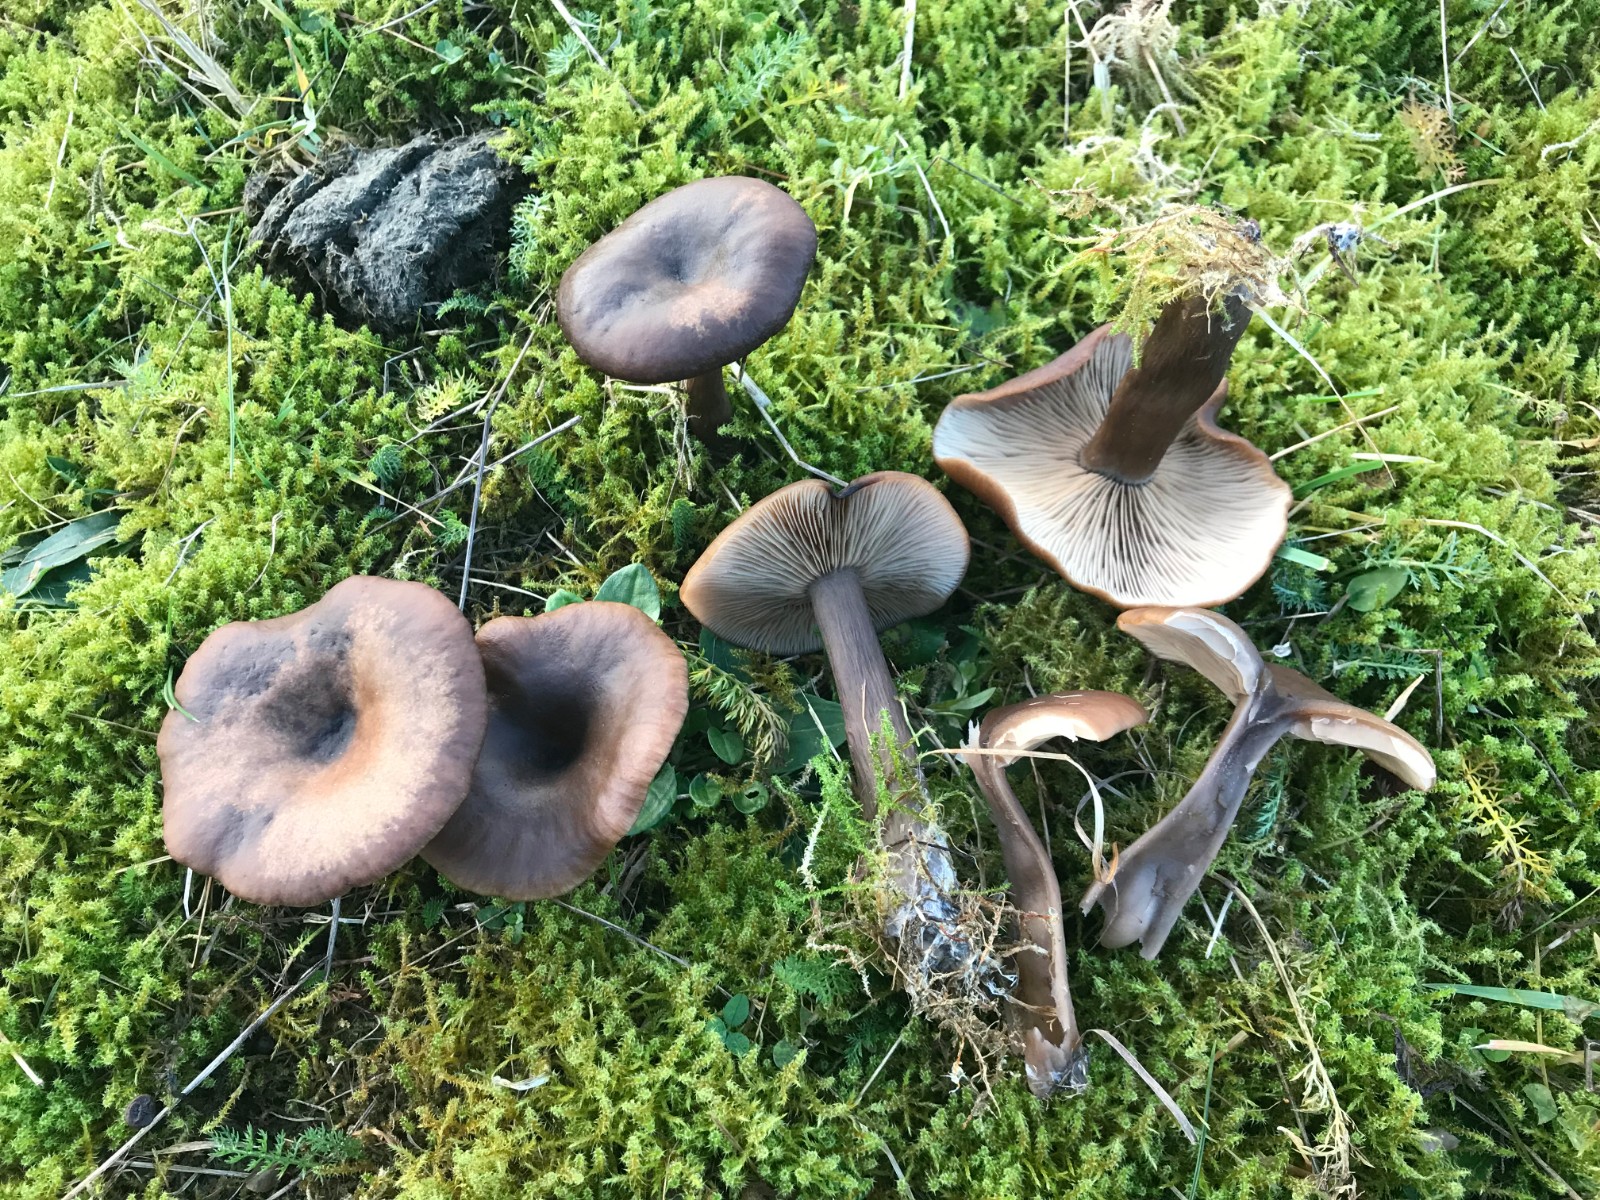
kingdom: Fungi
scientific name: Fungi
